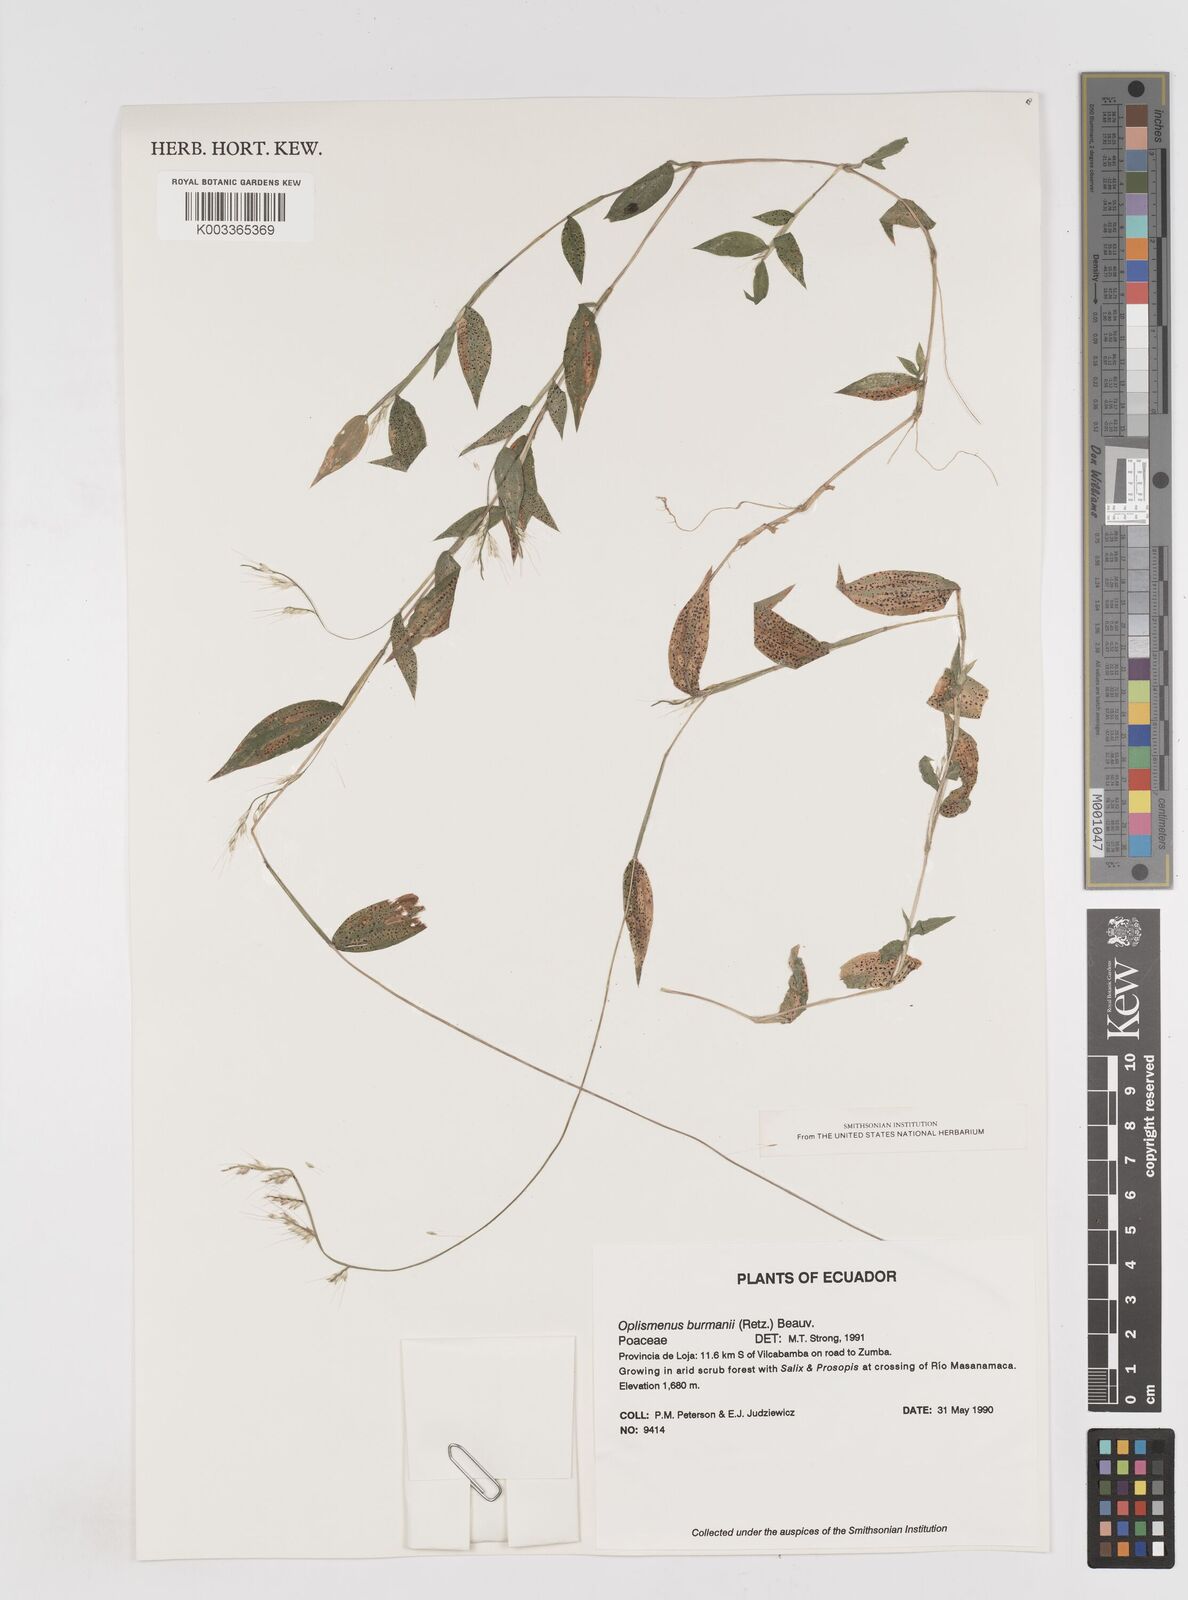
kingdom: Plantae
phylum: Tracheophyta
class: Liliopsida
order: Poales
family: Poaceae
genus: Oplismenus
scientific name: Oplismenus burmanni
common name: Burmann's basketgrass
